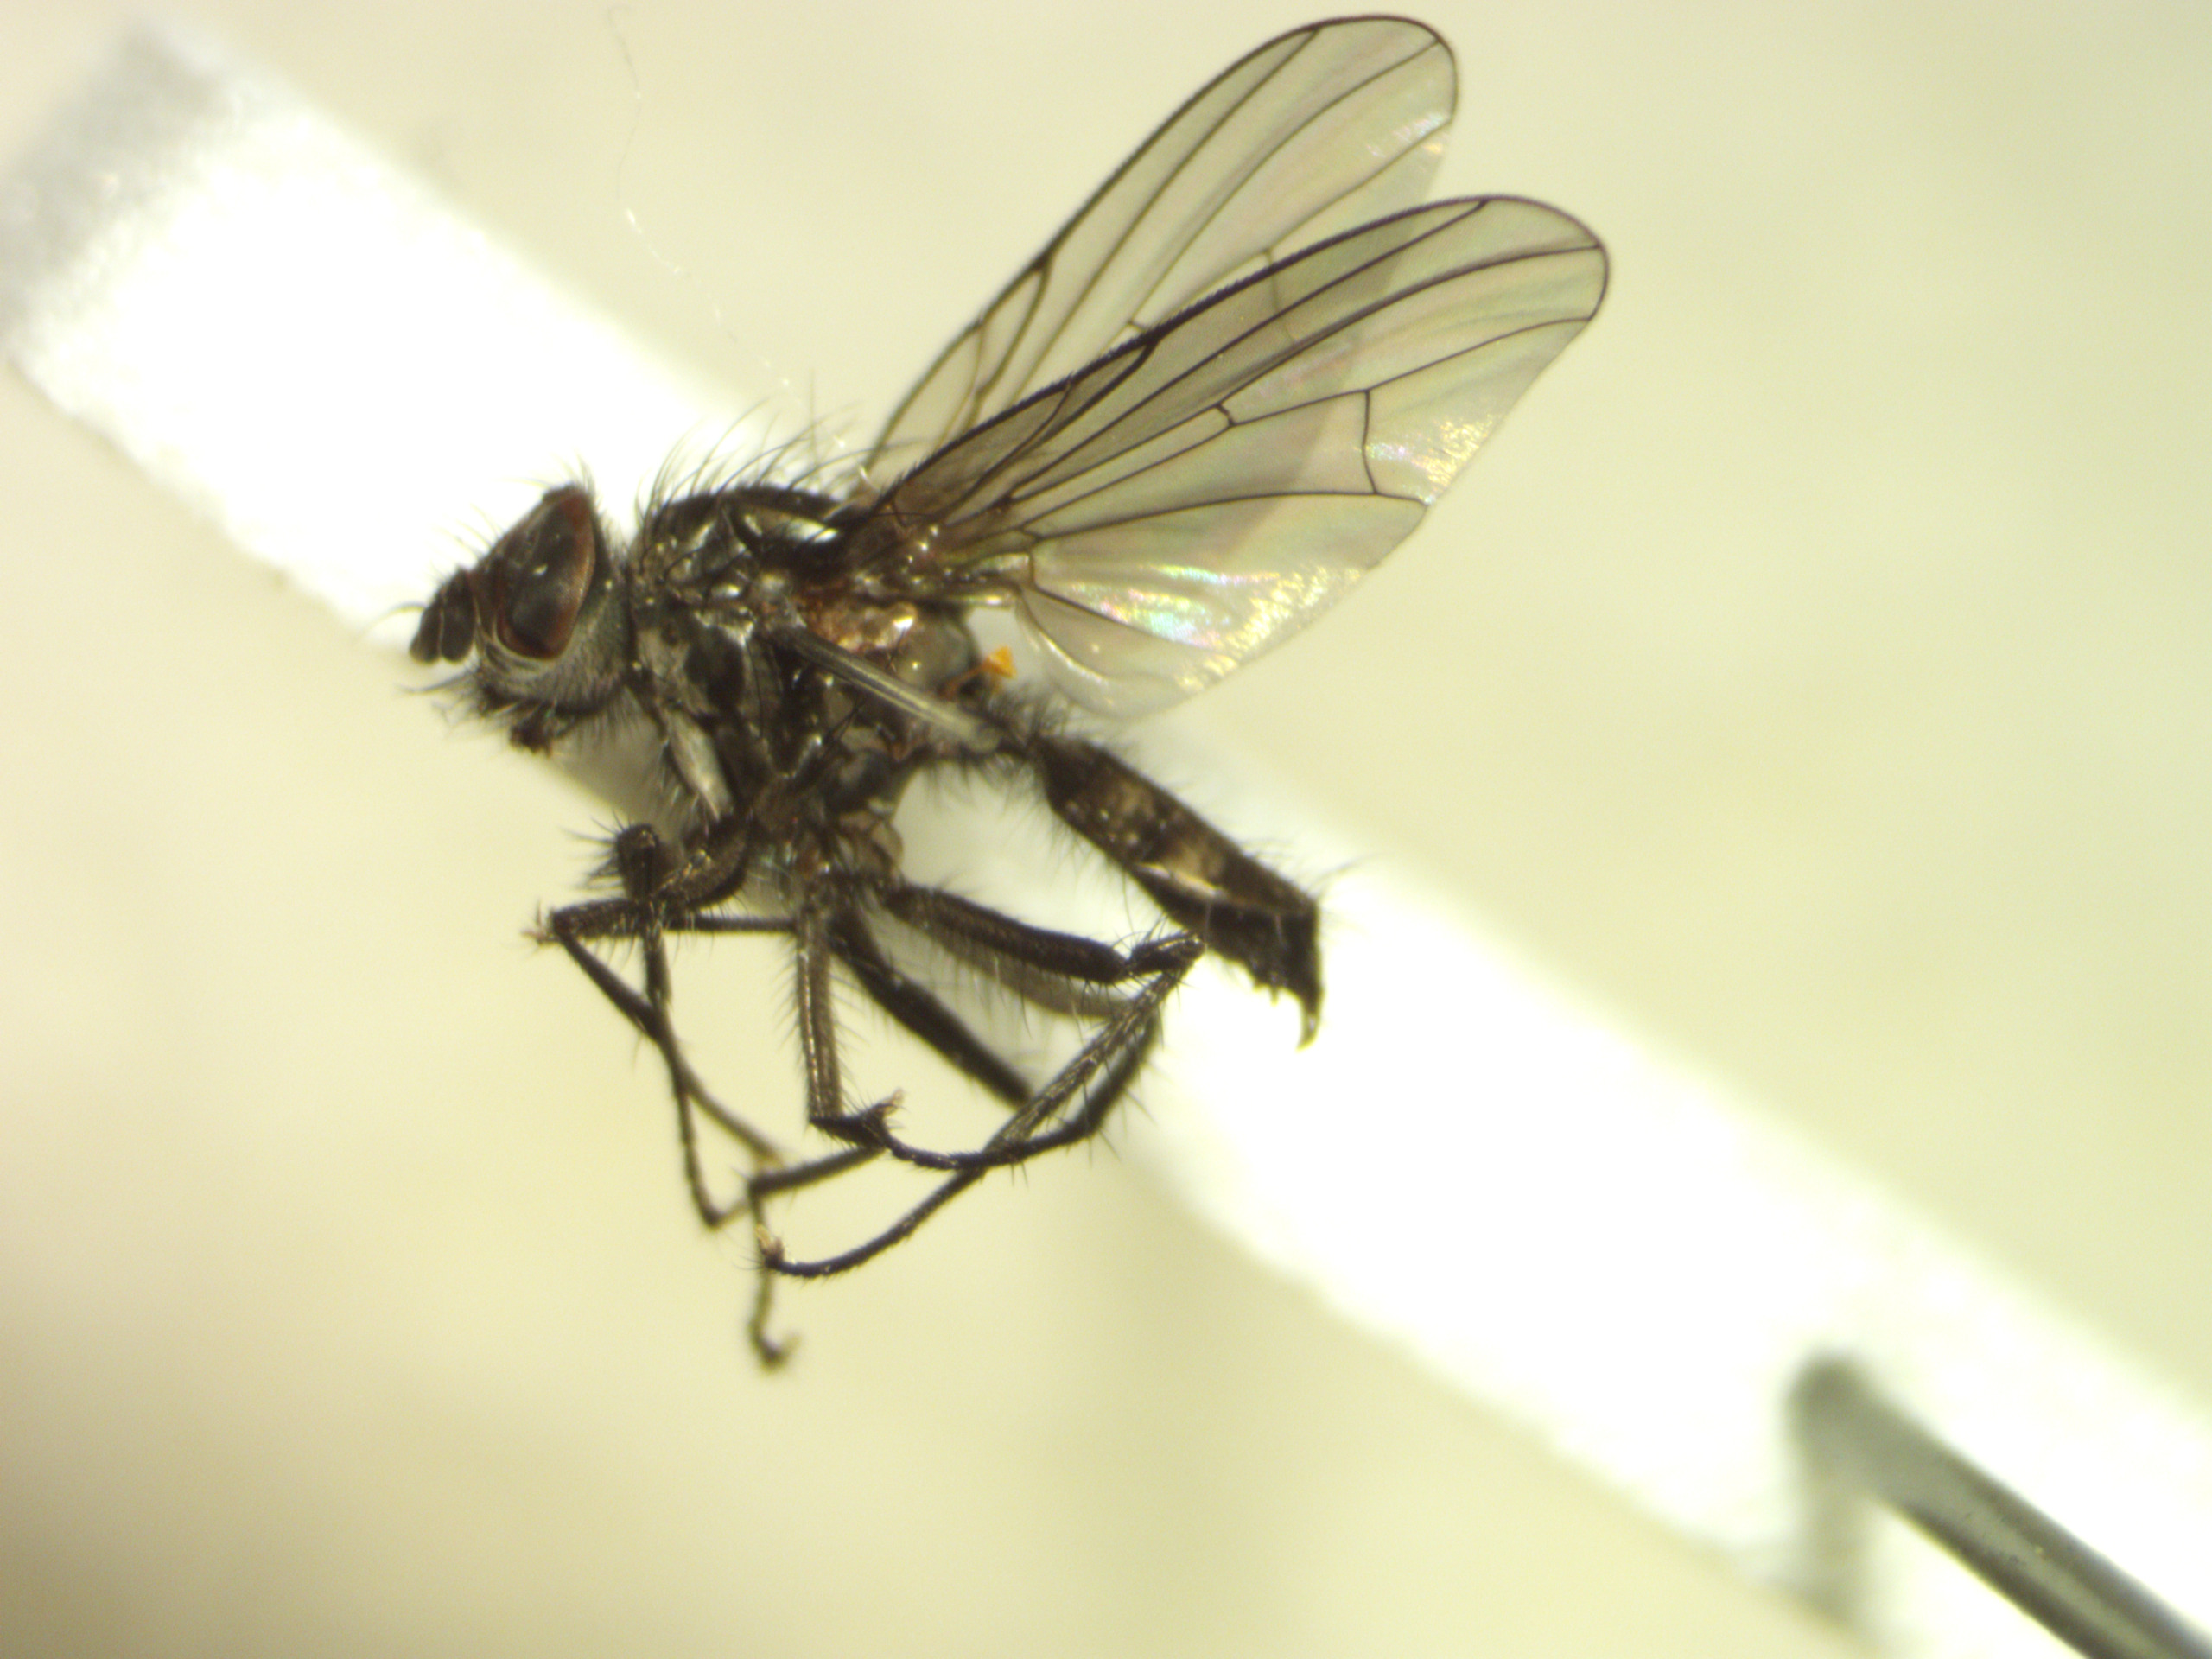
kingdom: Animalia
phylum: Arthropoda
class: Insecta
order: Diptera
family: Anthomyiidae
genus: Botanophila
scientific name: Botanophila striolata
